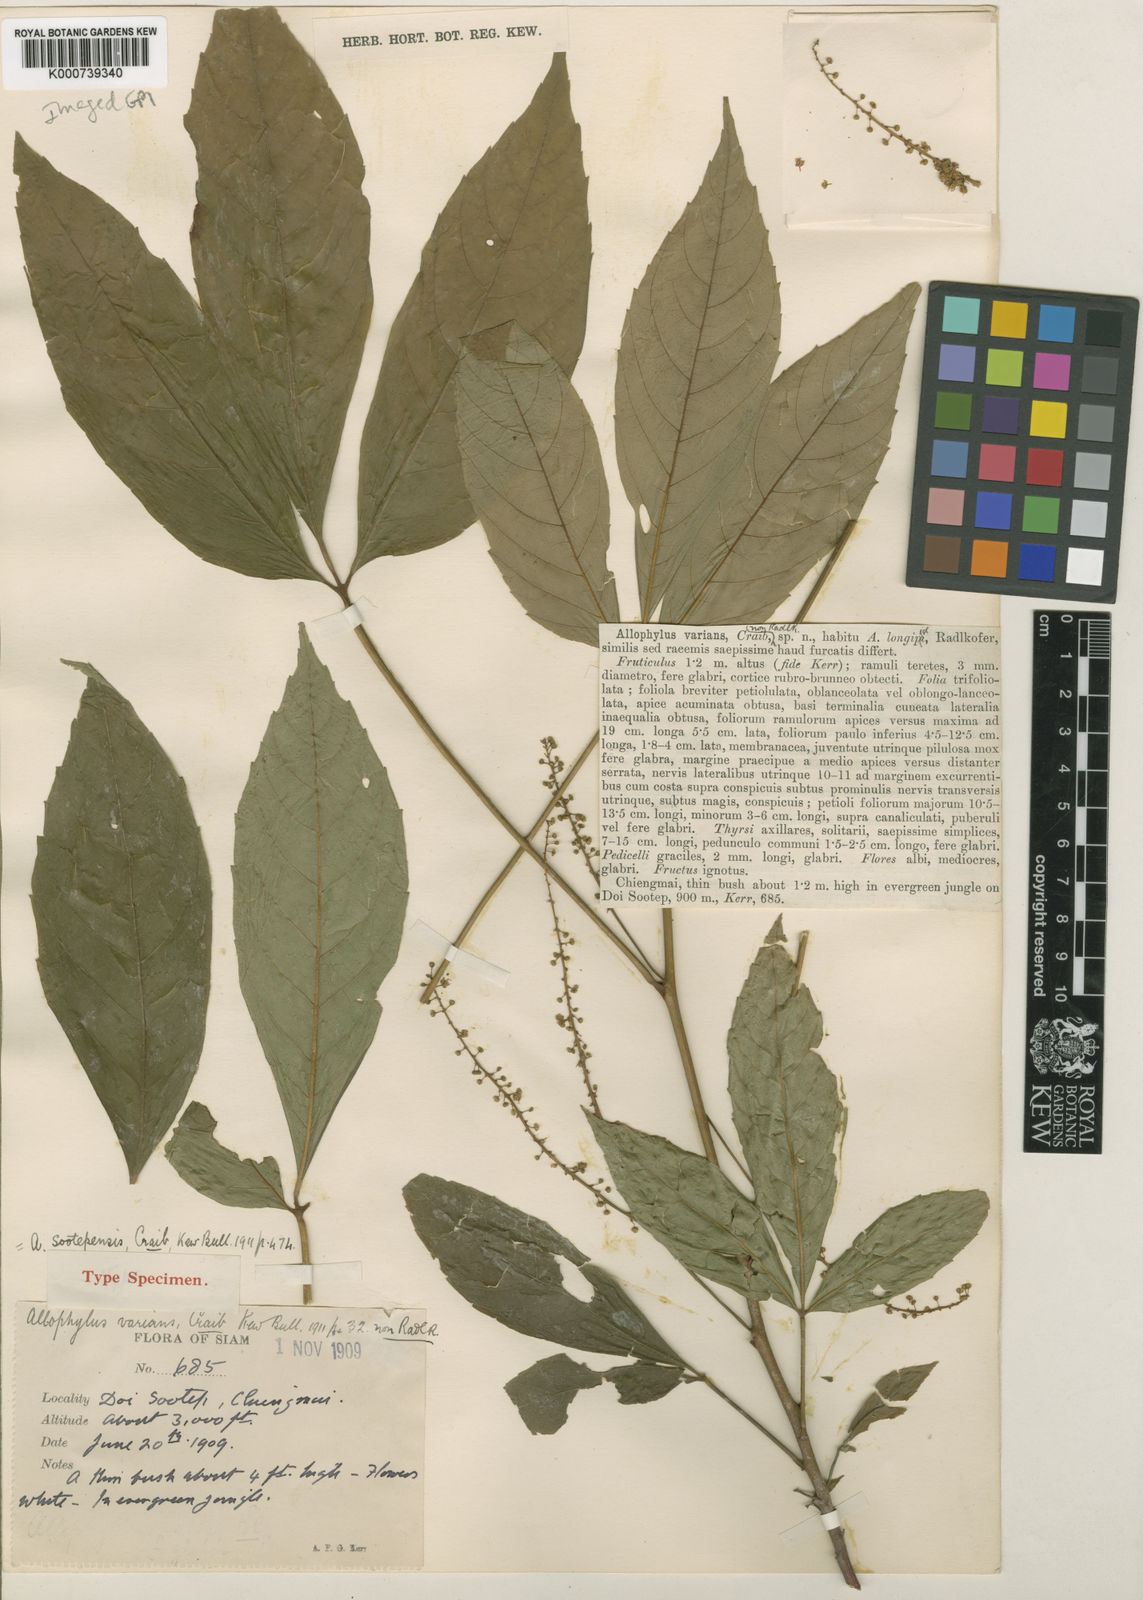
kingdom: Plantae
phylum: Tracheophyta
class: Magnoliopsida
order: Sapindales
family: Sapindaceae
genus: Allophylus
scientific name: Allophylus sootepensis
